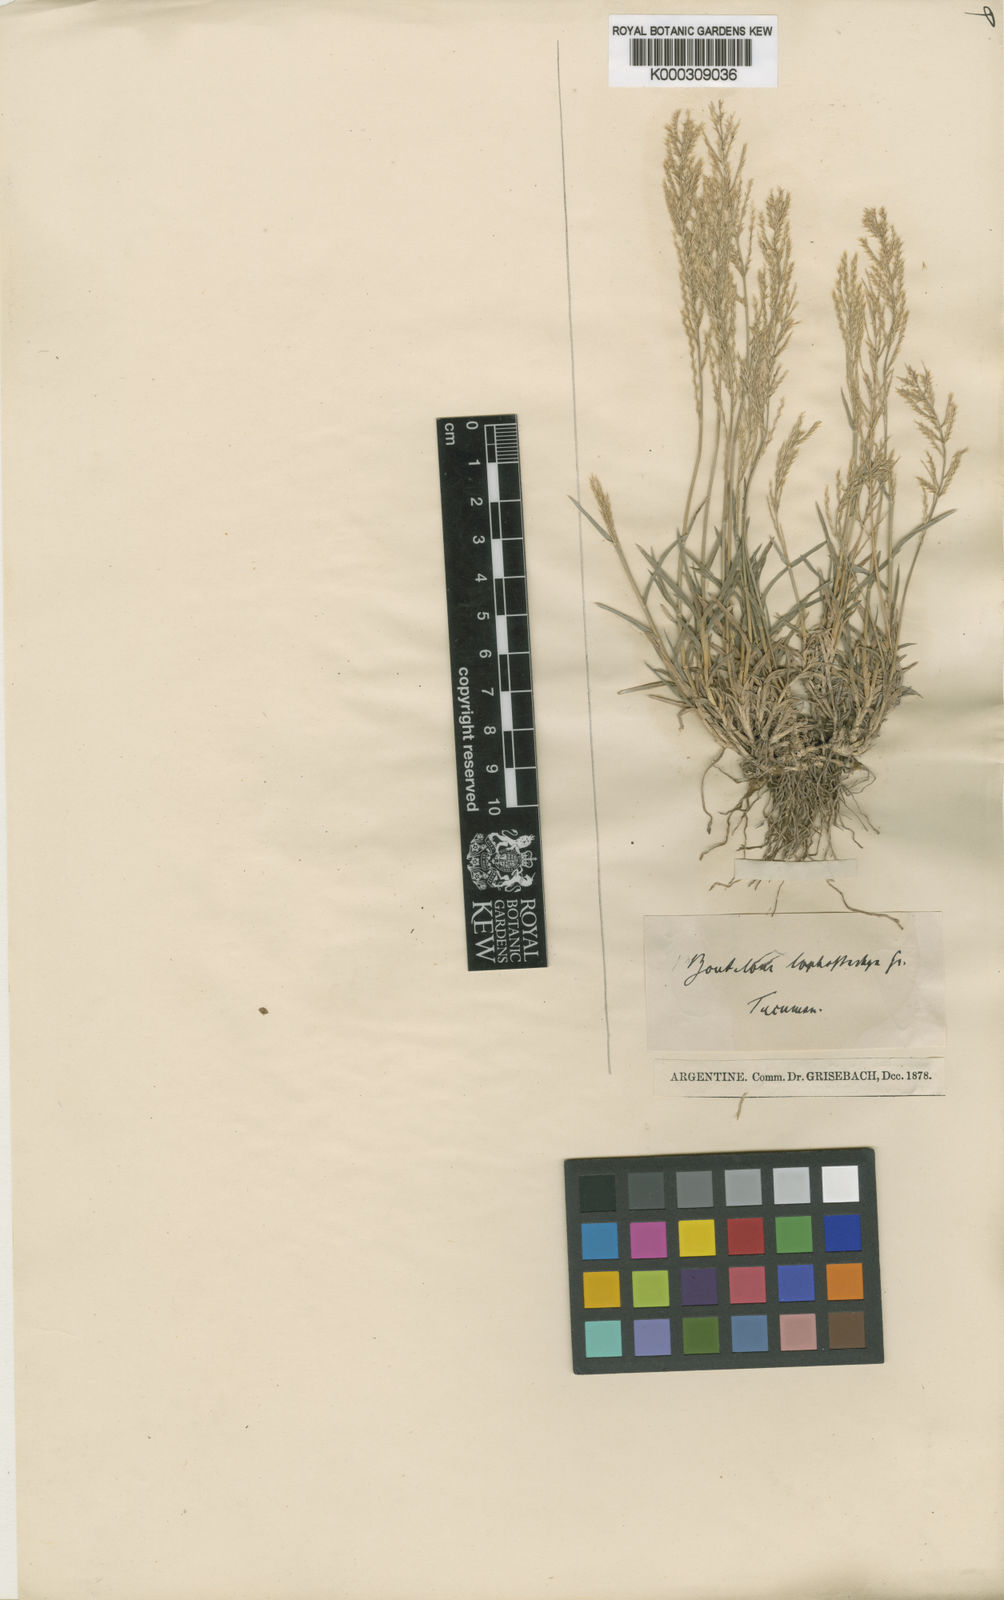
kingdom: Plantae
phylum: Tracheophyta
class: Liliopsida
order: Poales
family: Poaceae
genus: Neobouteloua
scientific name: Neobouteloua lophostachya
